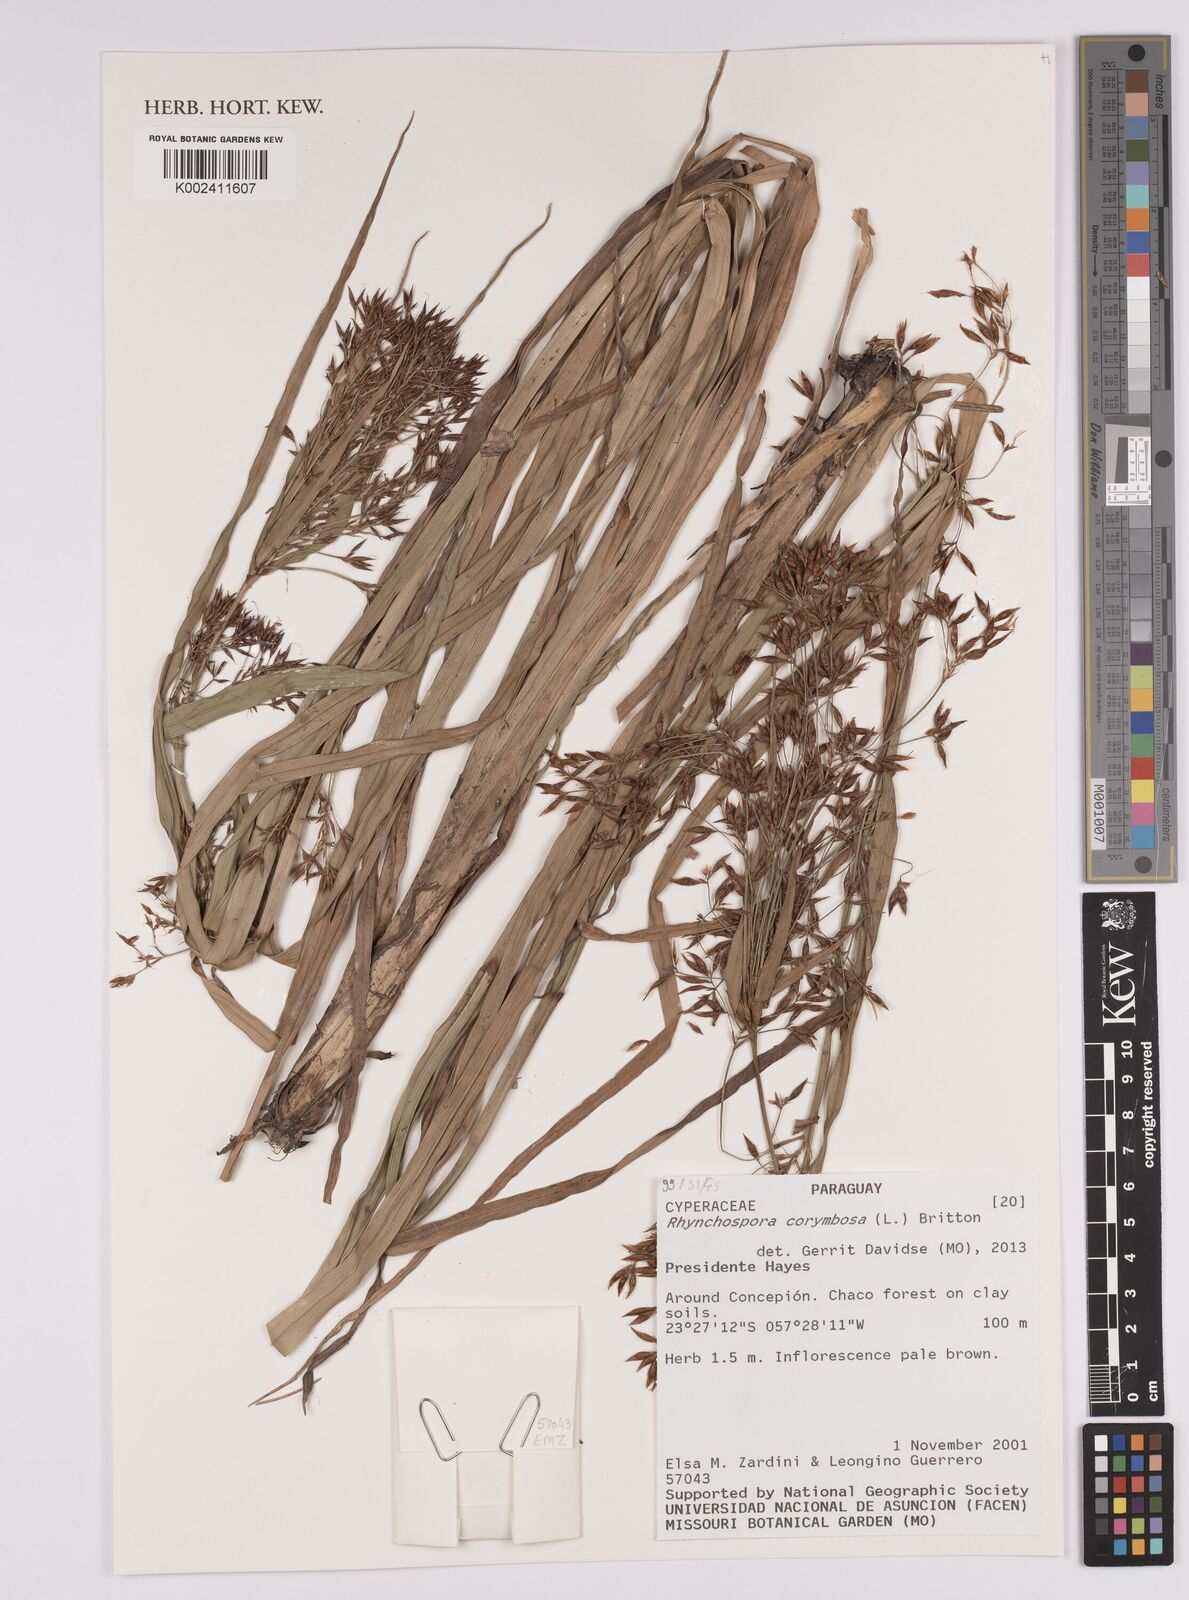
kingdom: Plantae
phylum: Tracheophyta
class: Liliopsida
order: Poales
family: Cyperaceae
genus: Rhynchospora
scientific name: Rhynchospora corymbosa
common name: Golden beak sedge
